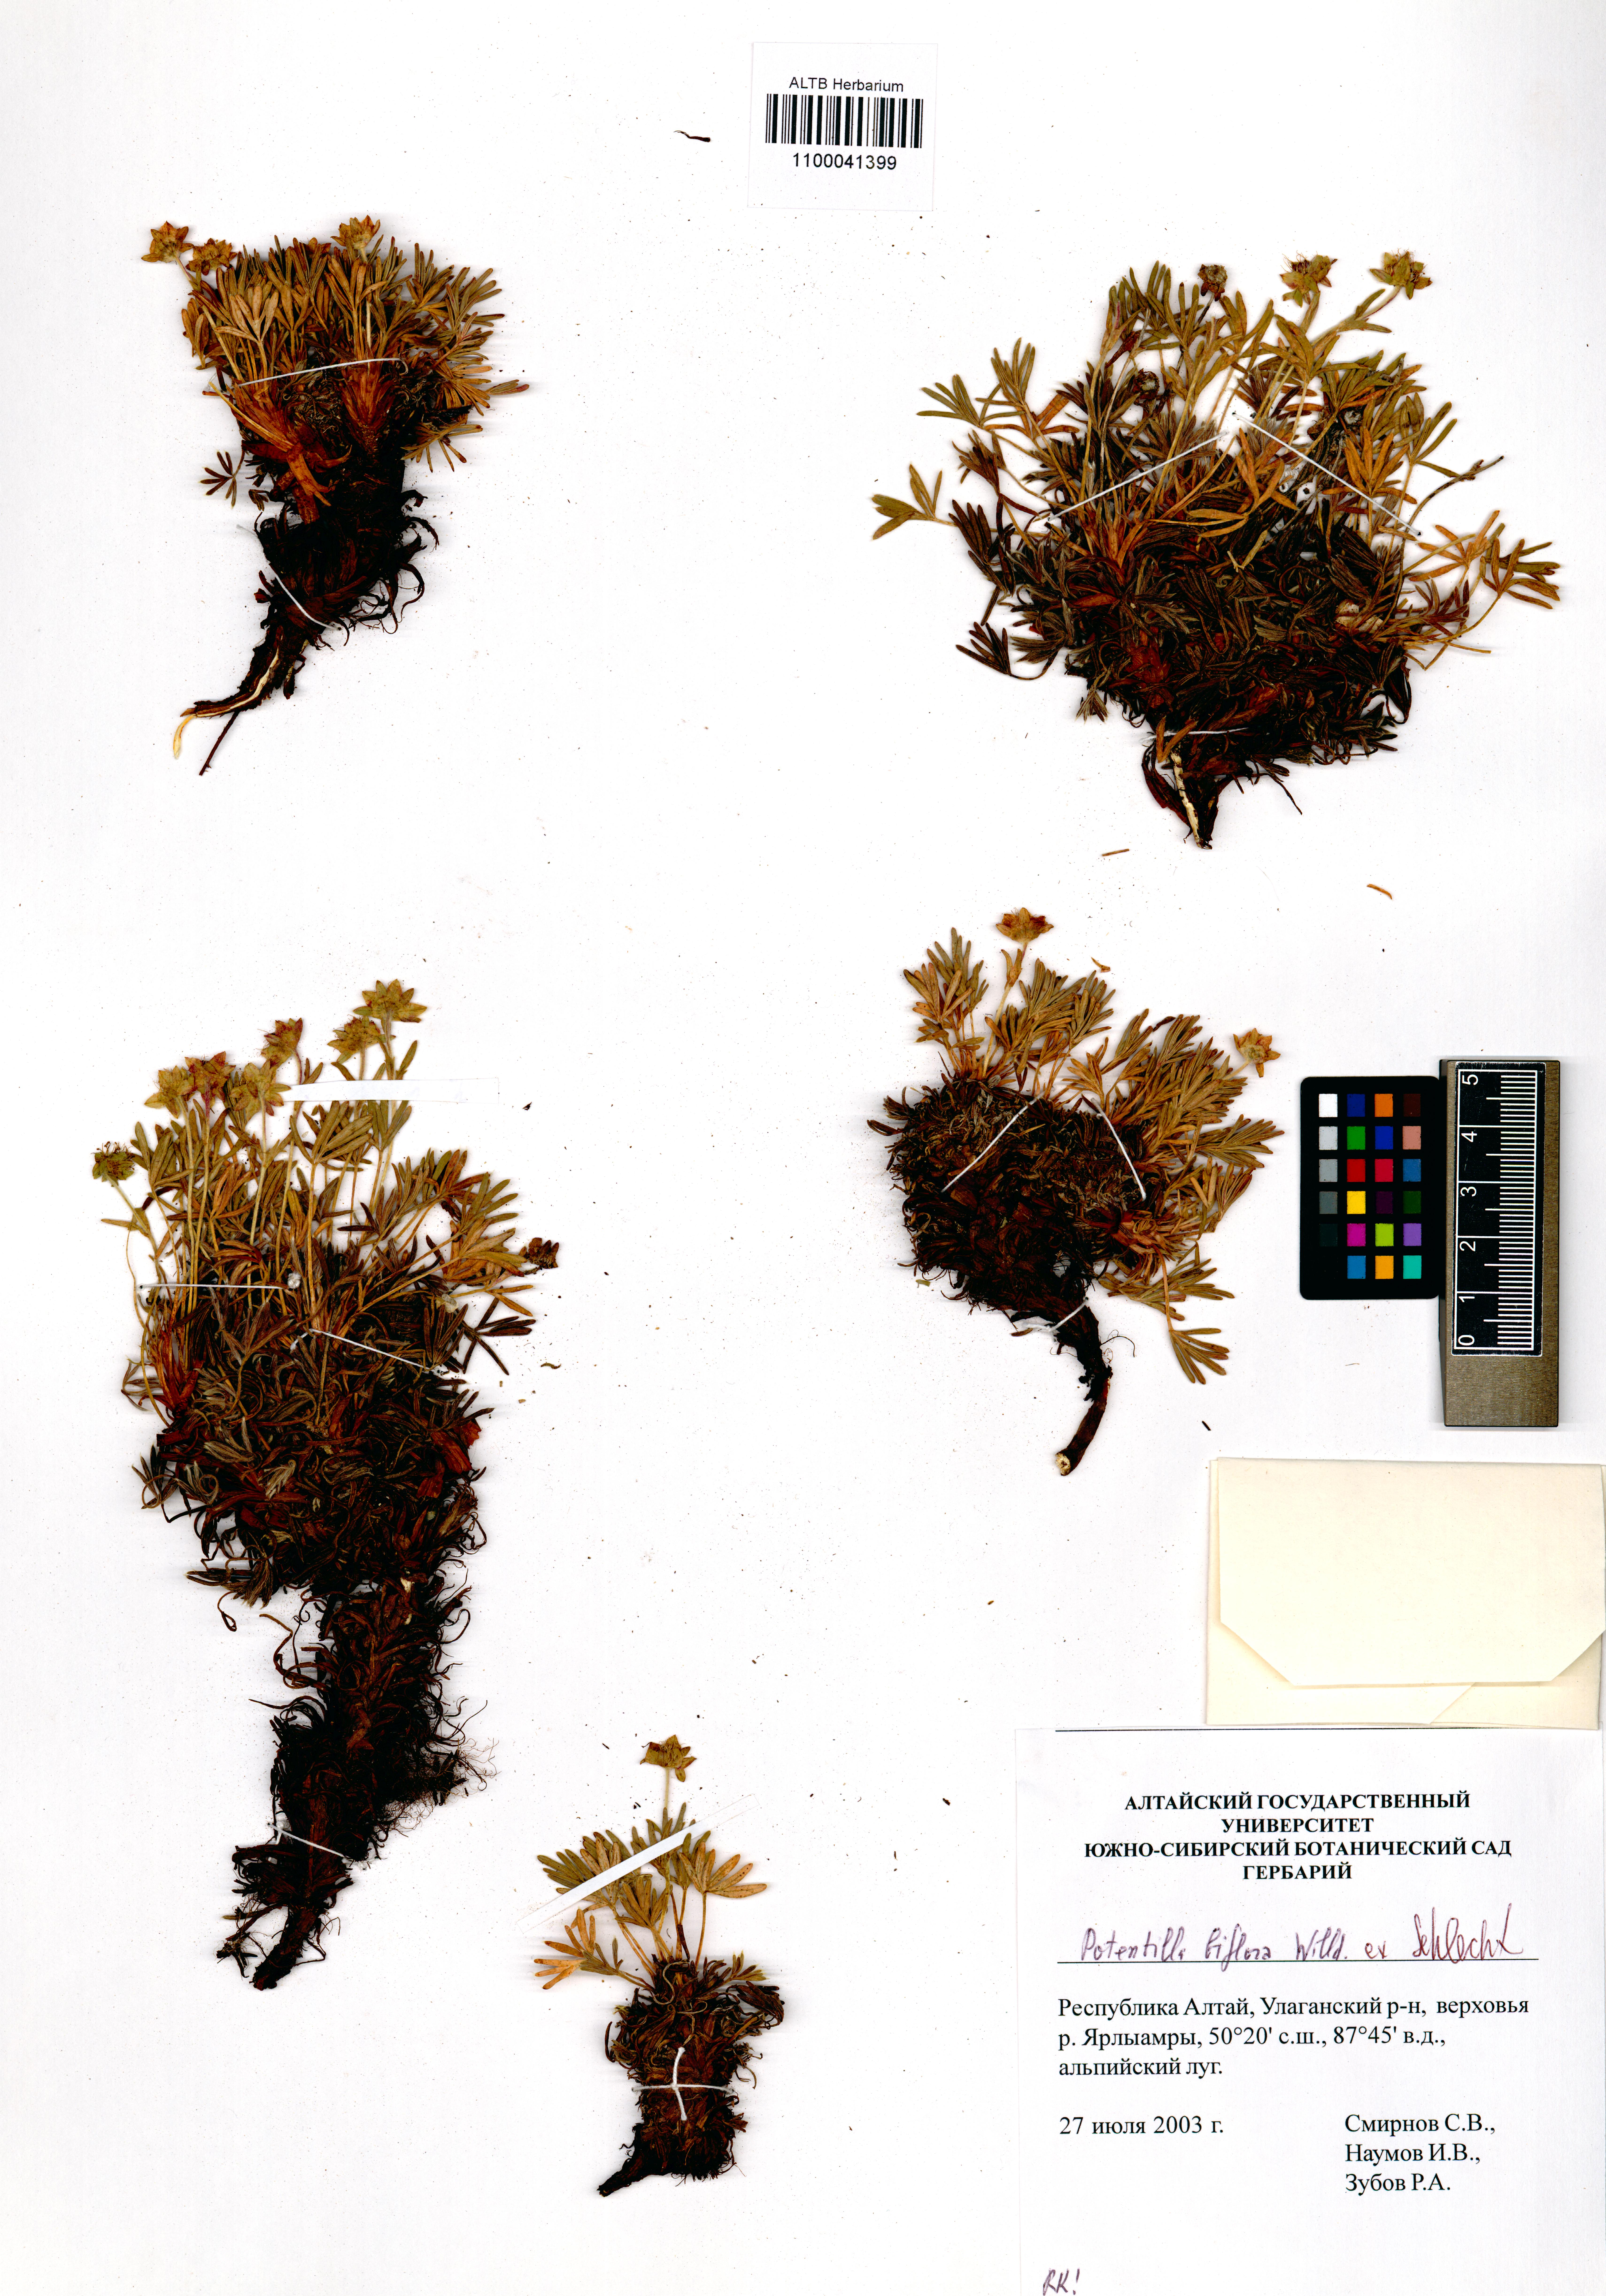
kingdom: Plantae
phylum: Tracheophyta
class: Magnoliopsida
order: Rosales
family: Rosaceae
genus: Potentilla
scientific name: Potentilla biflora
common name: Two-flowered cinquefoil
